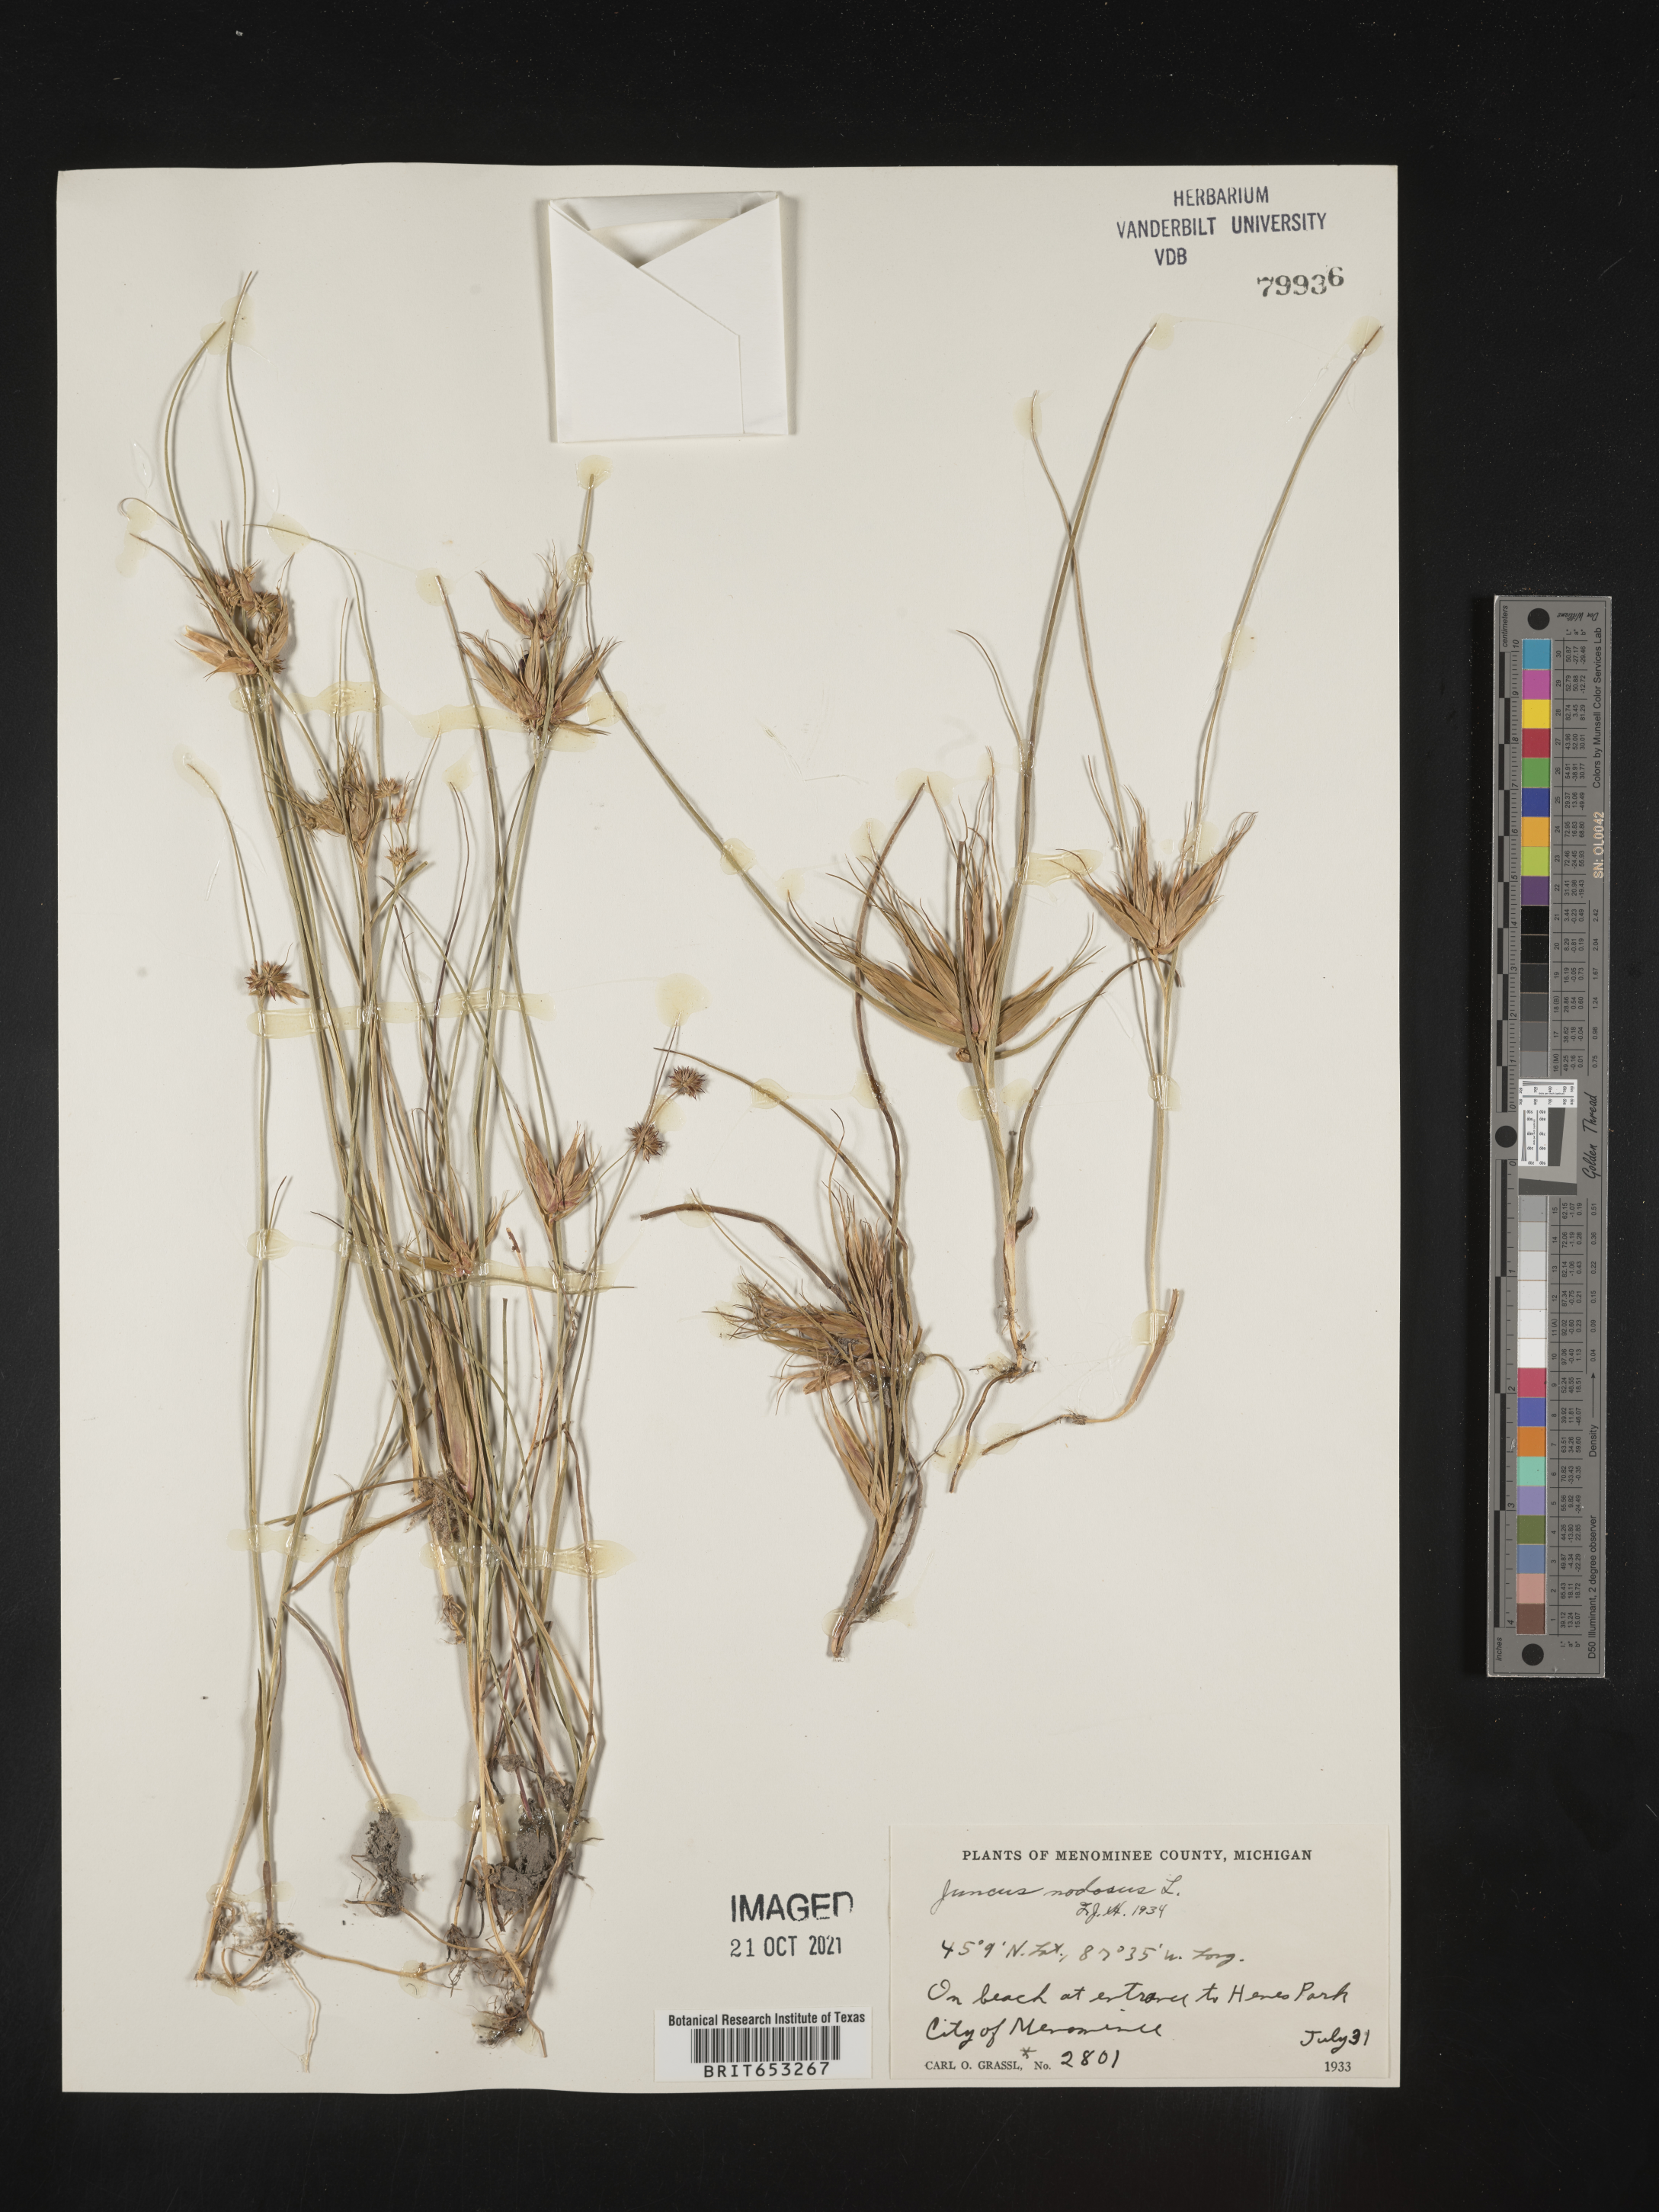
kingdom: Plantae
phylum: Tracheophyta
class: Liliopsida
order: Poales
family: Juncaceae
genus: Juncus
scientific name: Juncus nodosus
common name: Knotted rush
